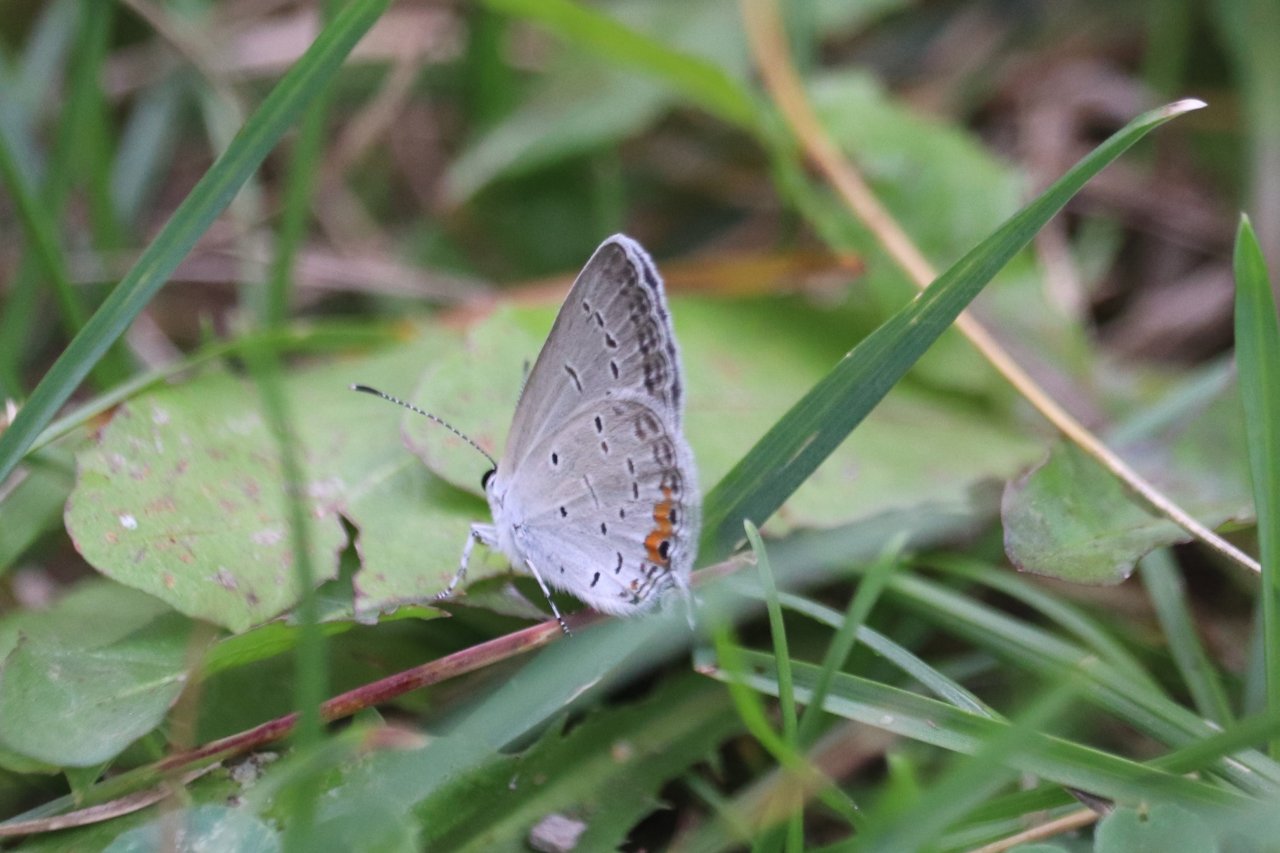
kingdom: Animalia
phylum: Arthropoda
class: Insecta
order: Lepidoptera
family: Lycaenidae
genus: Elkalyce
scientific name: Elkalyce comyntas
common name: Eastern Tailed-Blue
